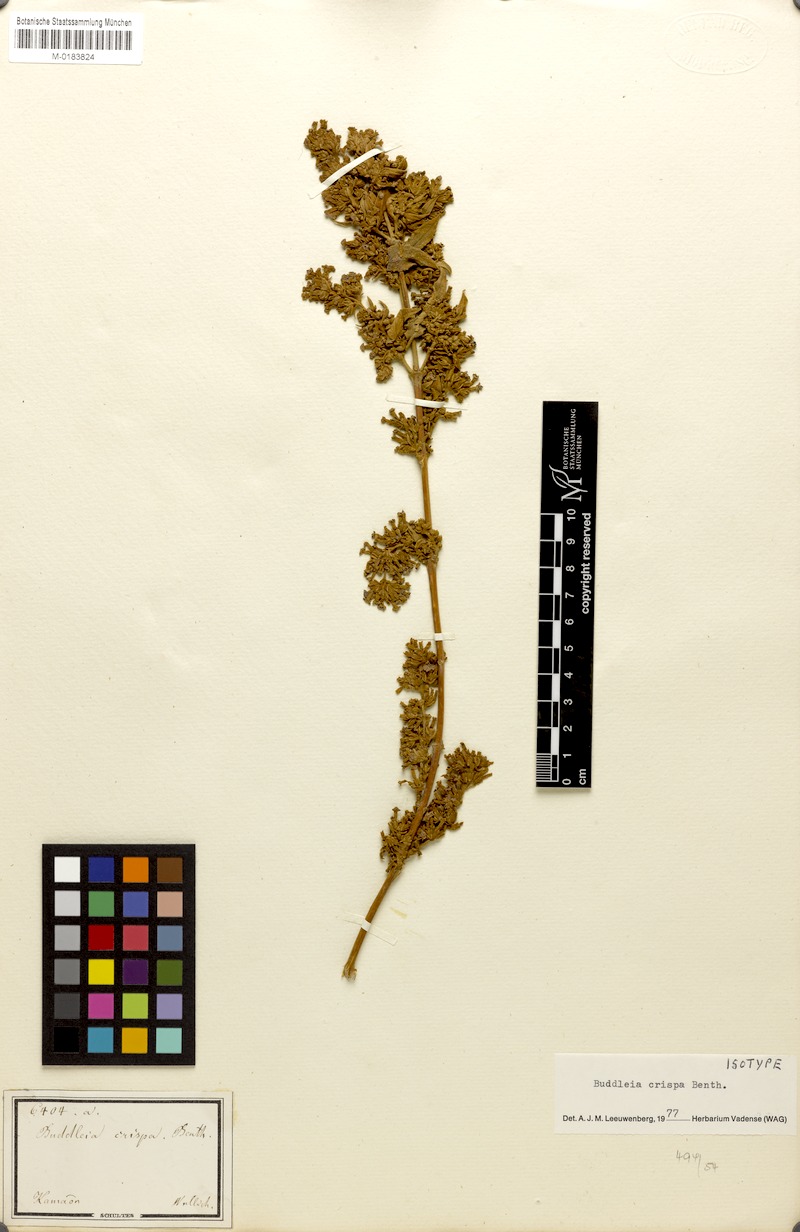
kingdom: Plantae
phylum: Tracheophyta
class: Magnoliopsida
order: Lamiales
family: Scrophulariaceae
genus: Buddleja
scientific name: Buddleja crispa
